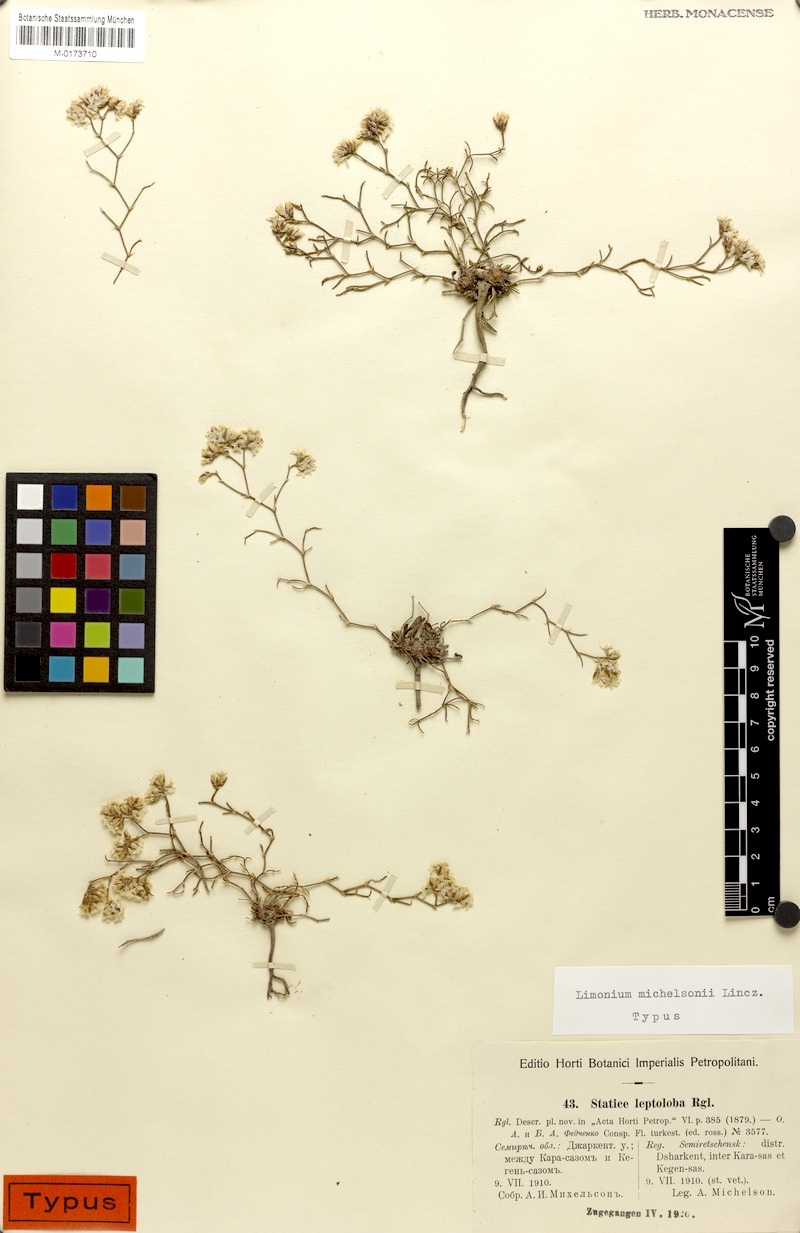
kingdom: Plantae
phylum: Tracheophyta
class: Magnoliopsida
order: Caryophyllales
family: Plumbaginaceae
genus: Limonium
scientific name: Limonium michelsonii
